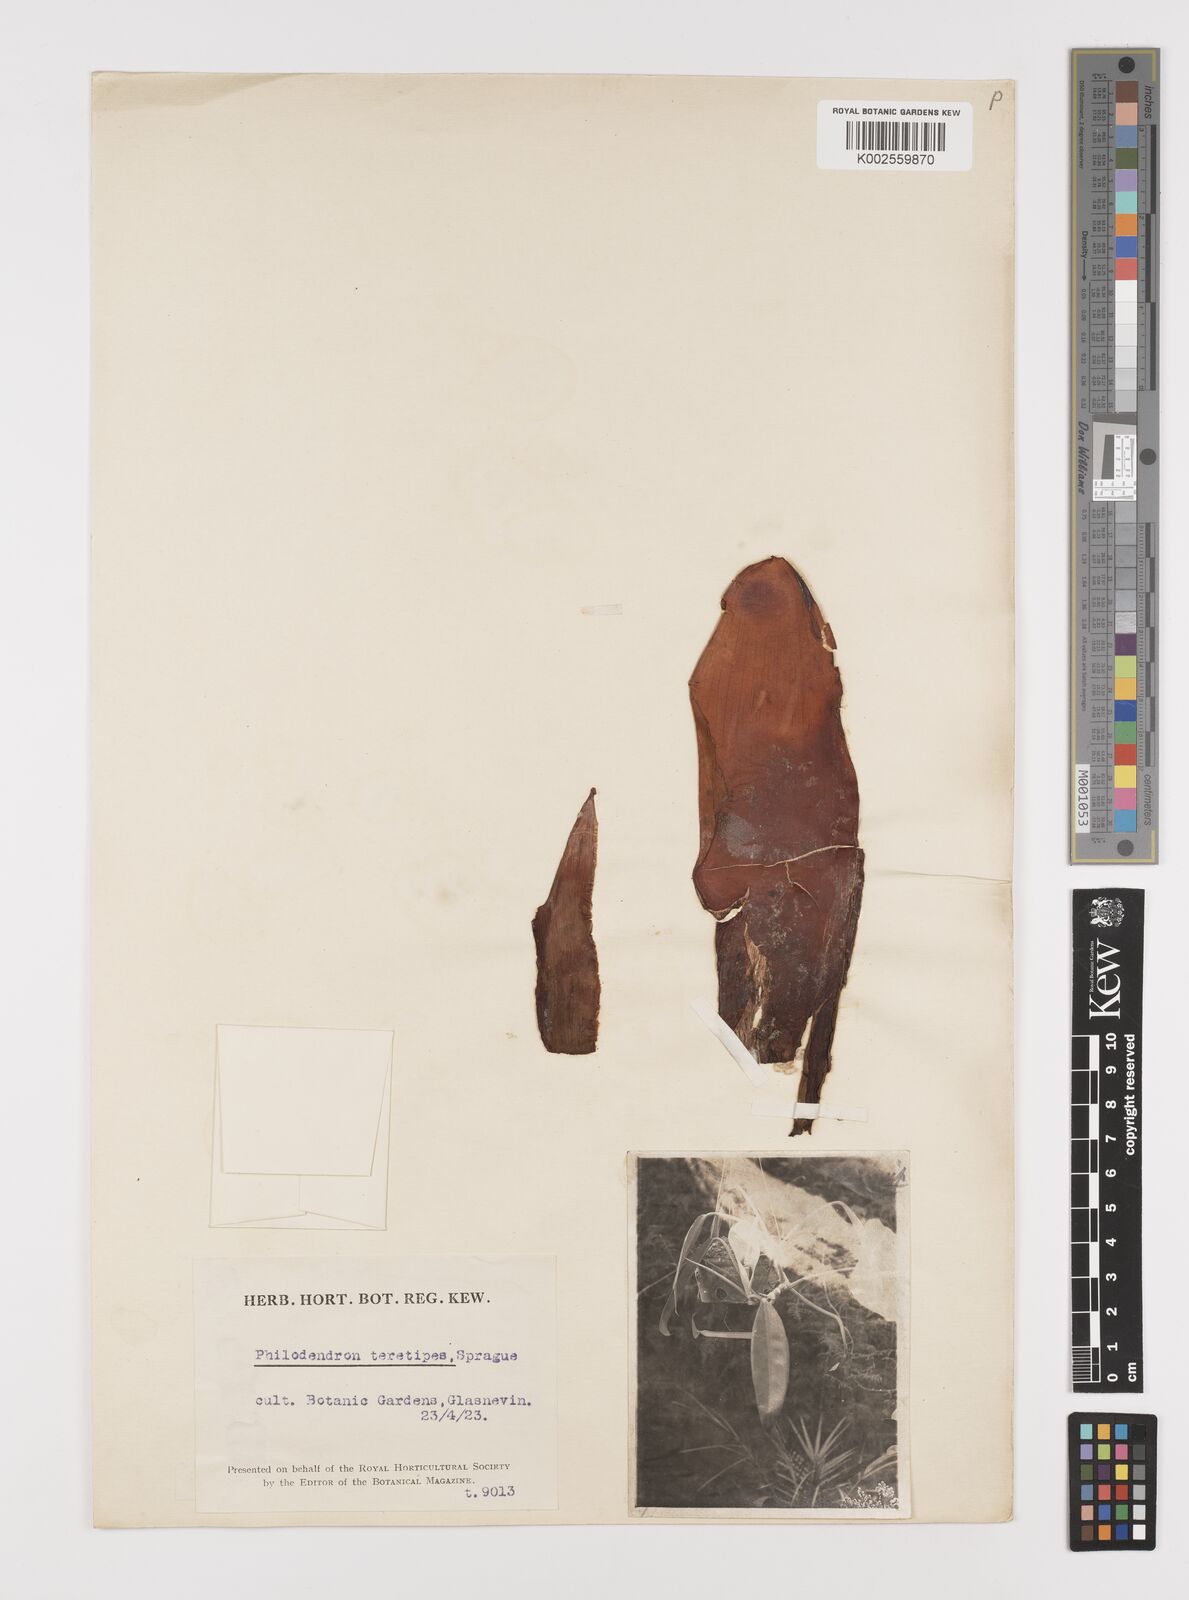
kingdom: Plantae
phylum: Tracheophyta
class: Liliopsida
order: Alismatales
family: Araceae
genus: Philodendron
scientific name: Philodendron teretipes
